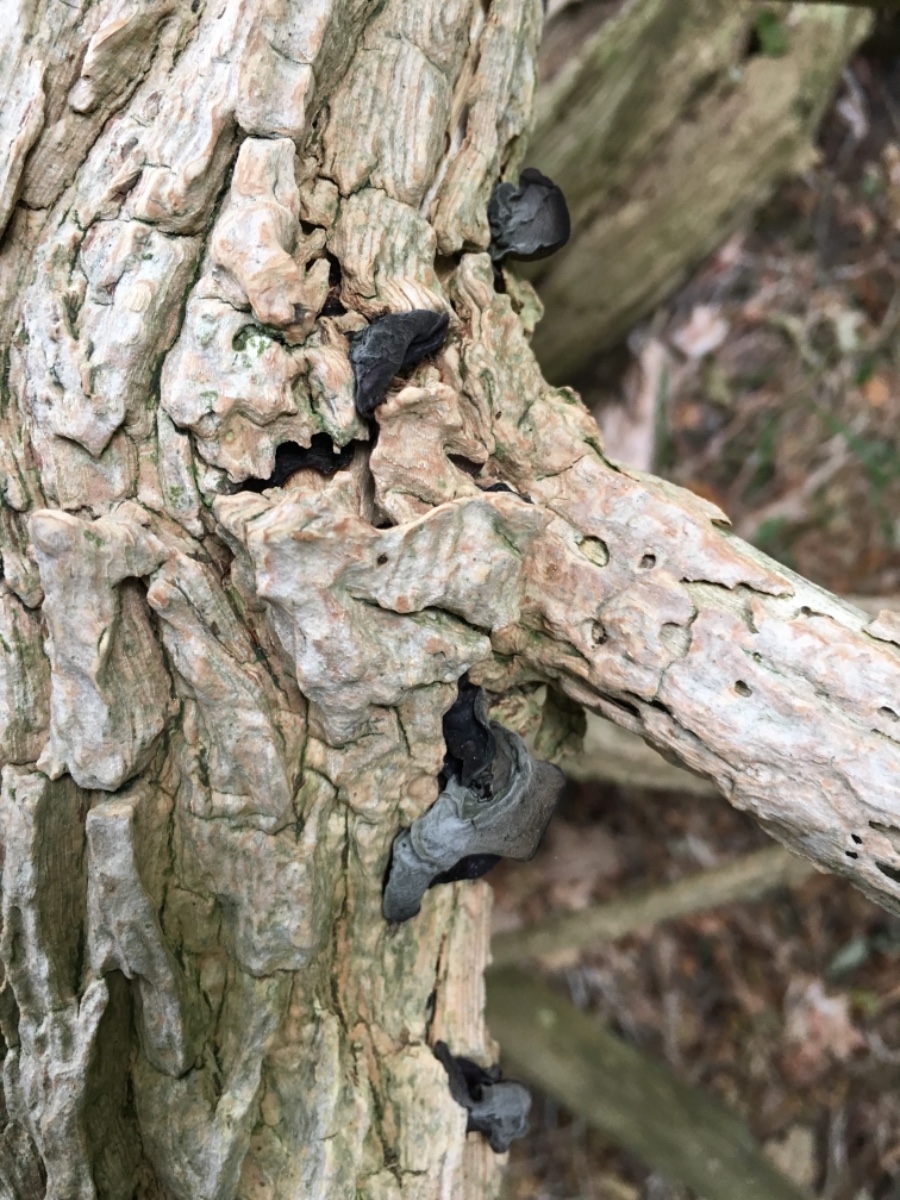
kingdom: Fungi
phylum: Basidiomycota
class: Agaricomycetes
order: Auriculariales
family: Auriculariaceae
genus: Auricularia
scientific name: Auricularia auricula-judae
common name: almindelig judasøre
